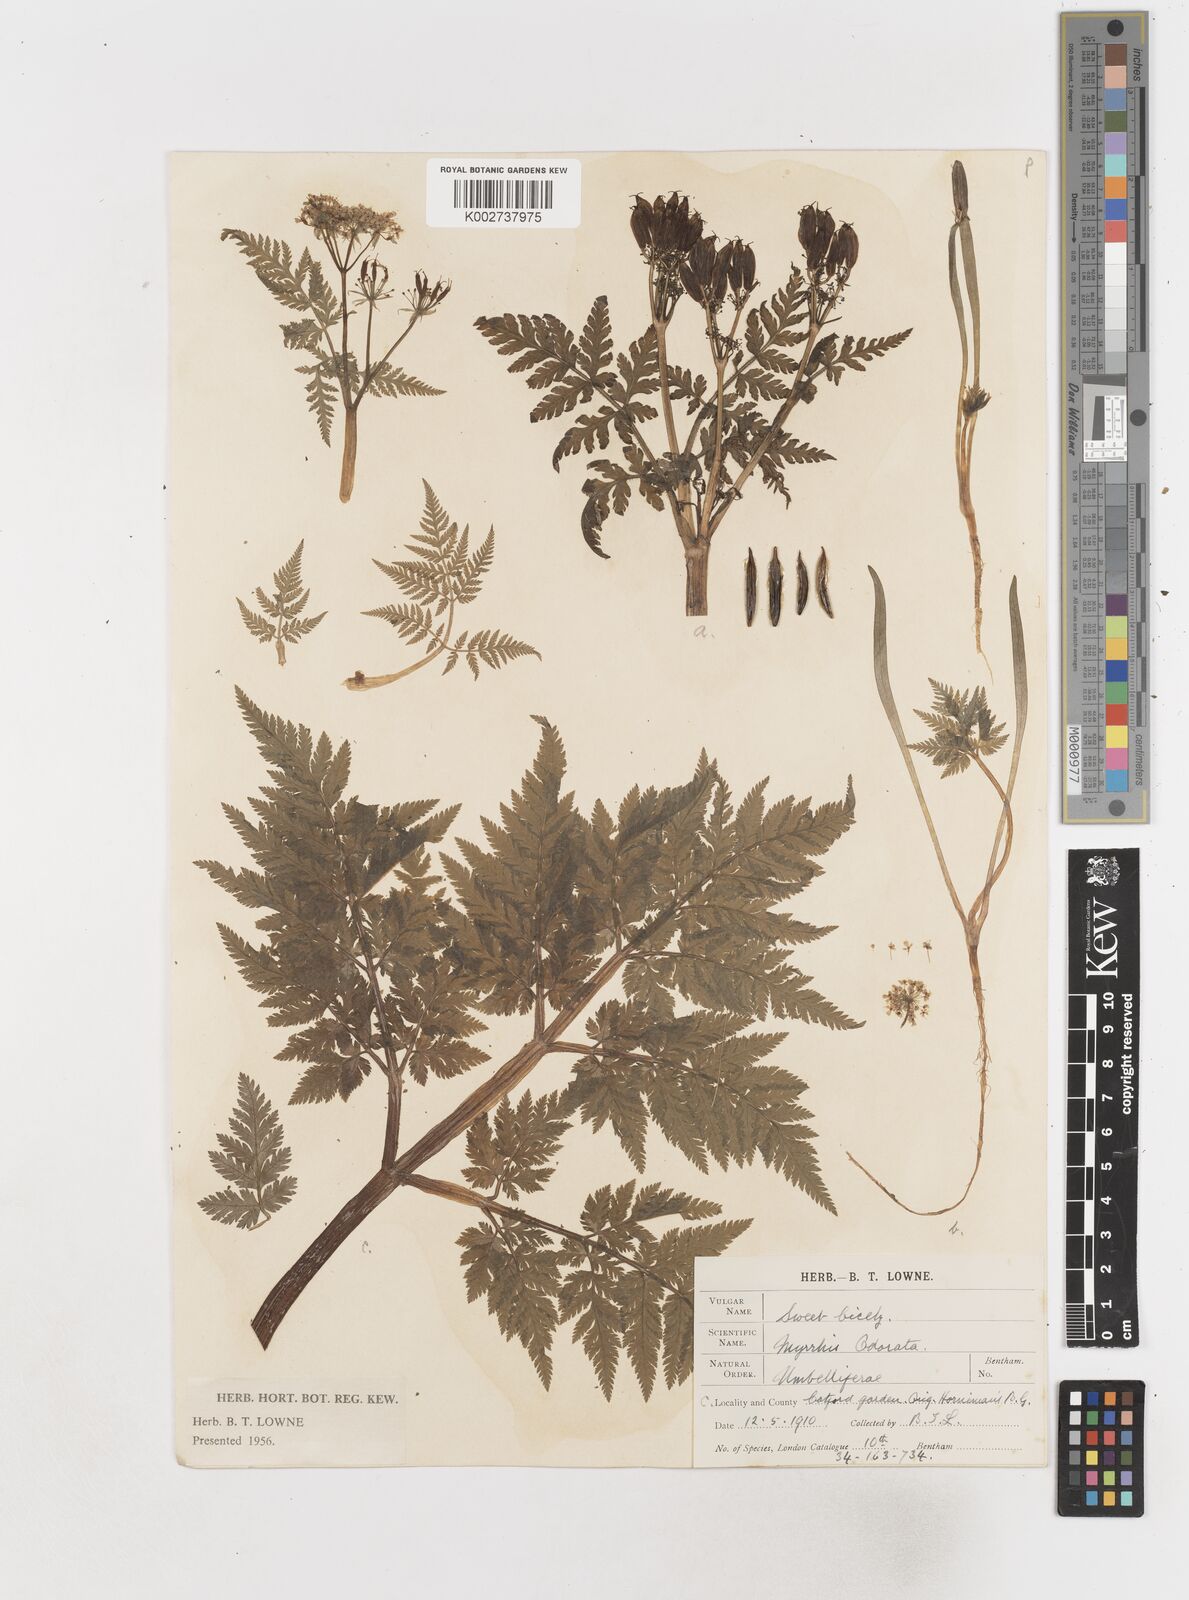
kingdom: Plantae
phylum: Tracheophyta
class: Magnoliopsida
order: Apiales
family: Apiaceae
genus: Myrrhis
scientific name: Myrrhis odorata
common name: Sweet cicely
